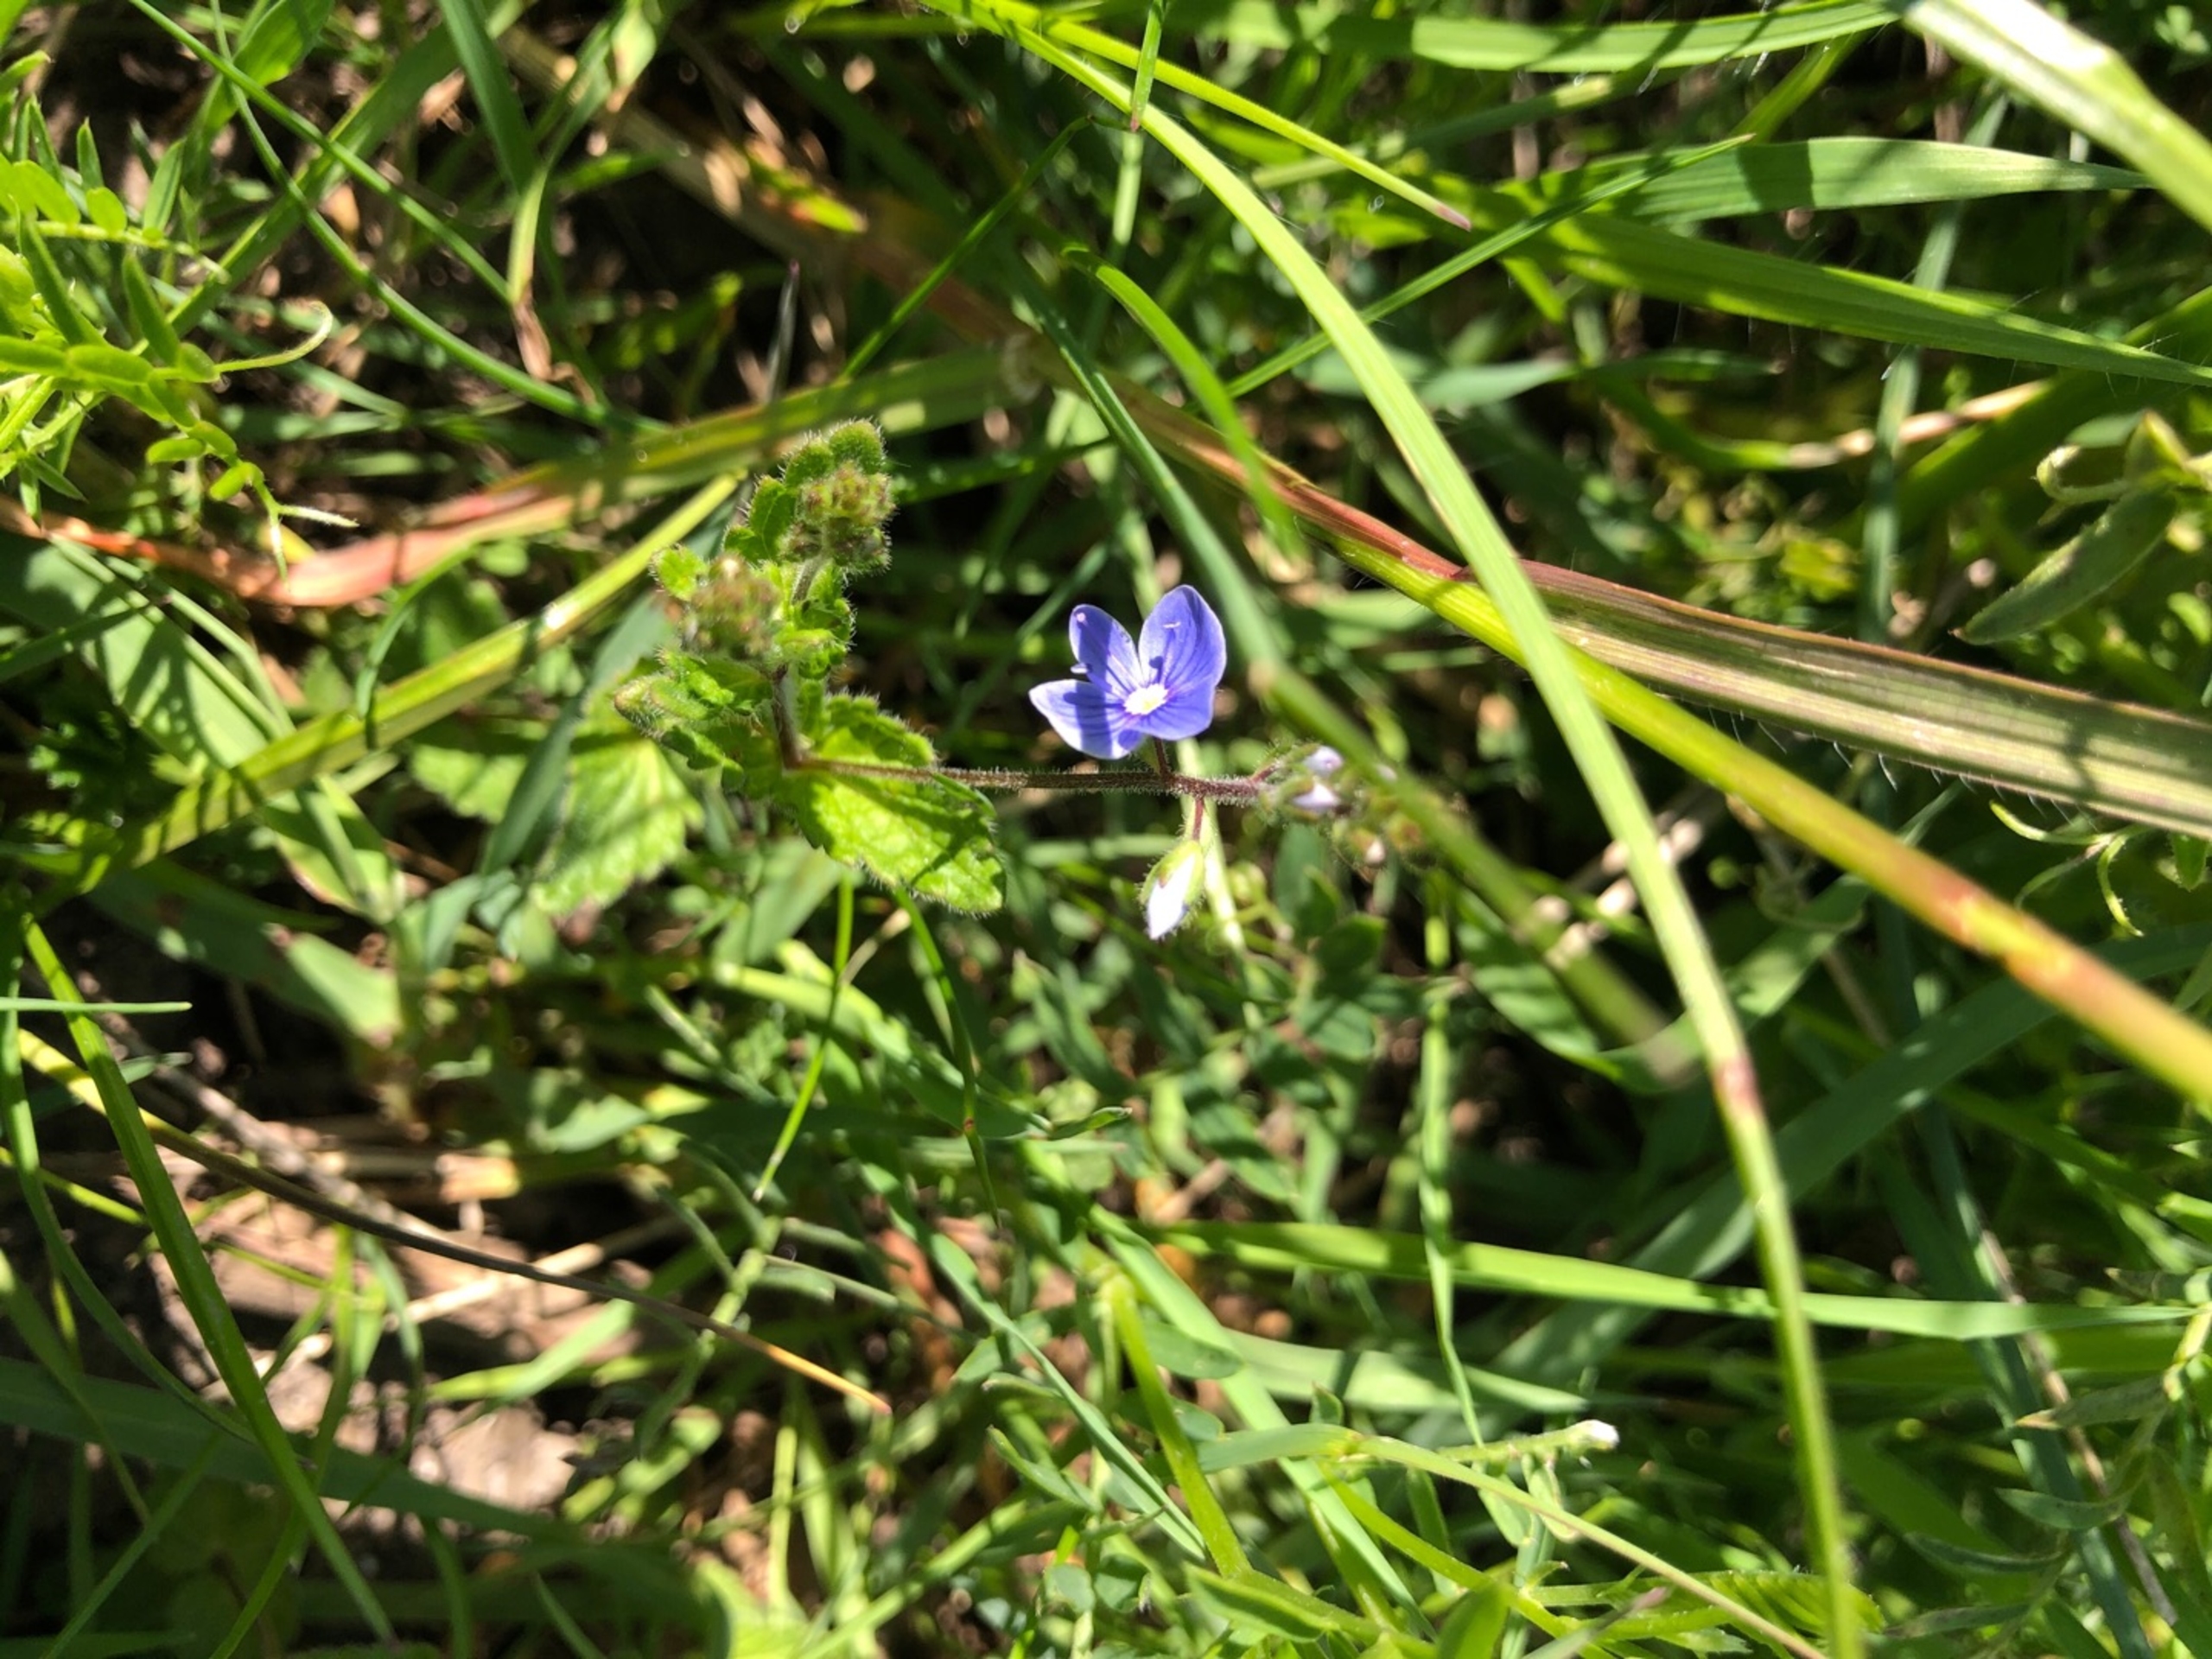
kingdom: Plantae
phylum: Tracheophyta
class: Magnoliopsida
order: Lamiales
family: Plantaginaceae
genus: Veronica
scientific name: Veronica chamaedrys
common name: Tveskægget ærenpris
